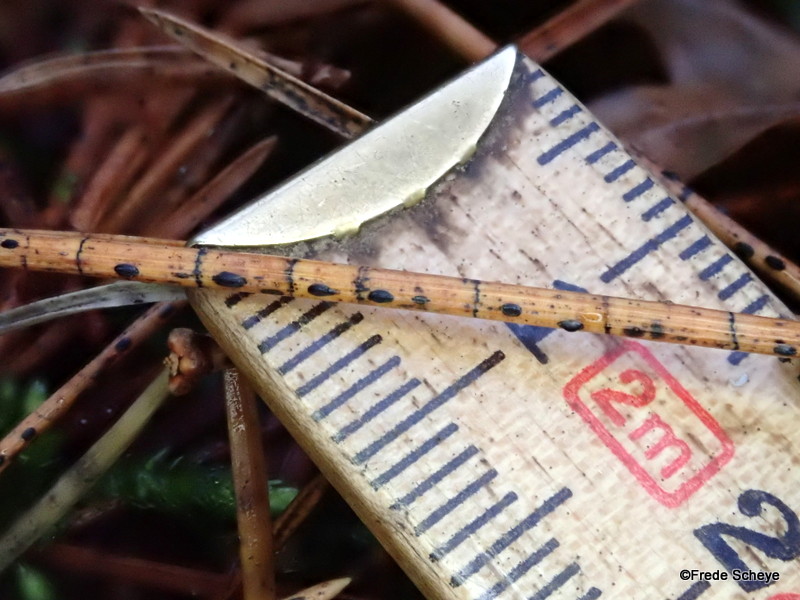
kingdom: Fungi
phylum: Ascomycota
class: Leotiomycetes
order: Rhytismatales
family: Rhytismataceae
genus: Lophodermium
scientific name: Lophodermium pinastri
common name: fyrre-fureplet
